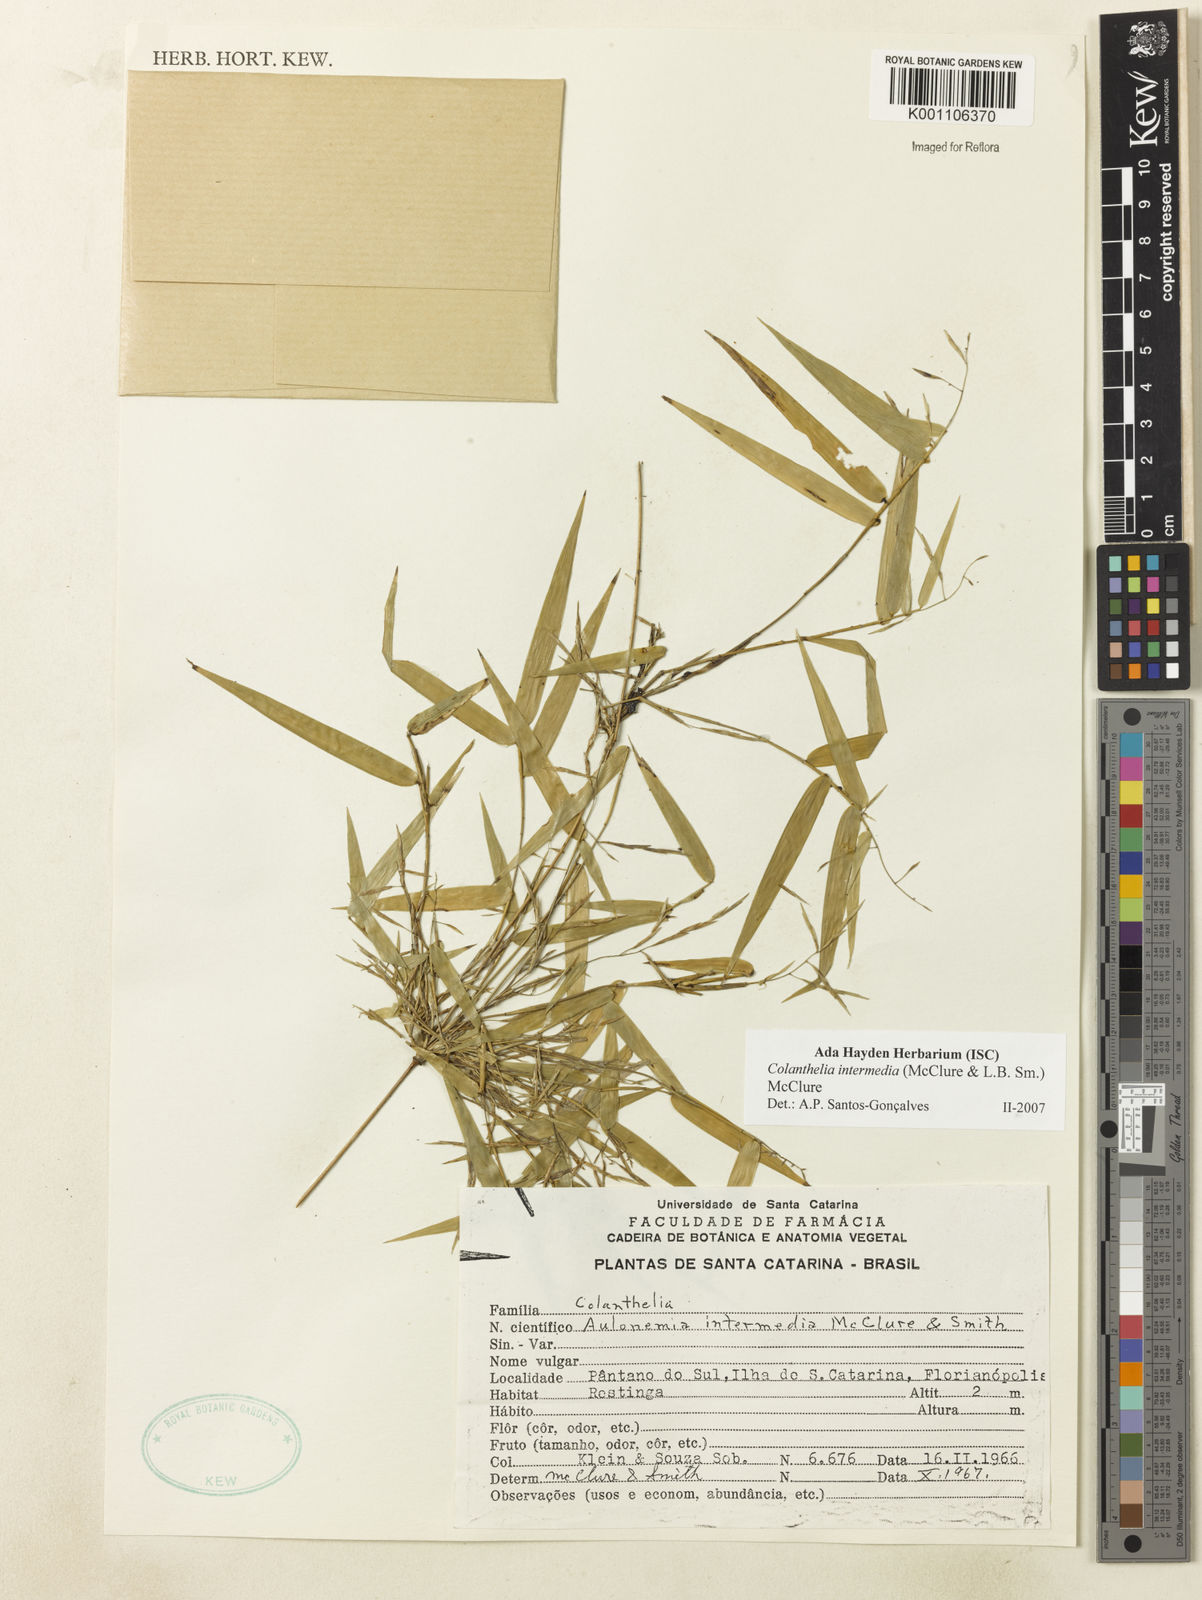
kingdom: Plantae
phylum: Tracheophyta
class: Liliopsida
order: Poales
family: Poaceae
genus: Colanthelia
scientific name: Colanthelia intermedia
